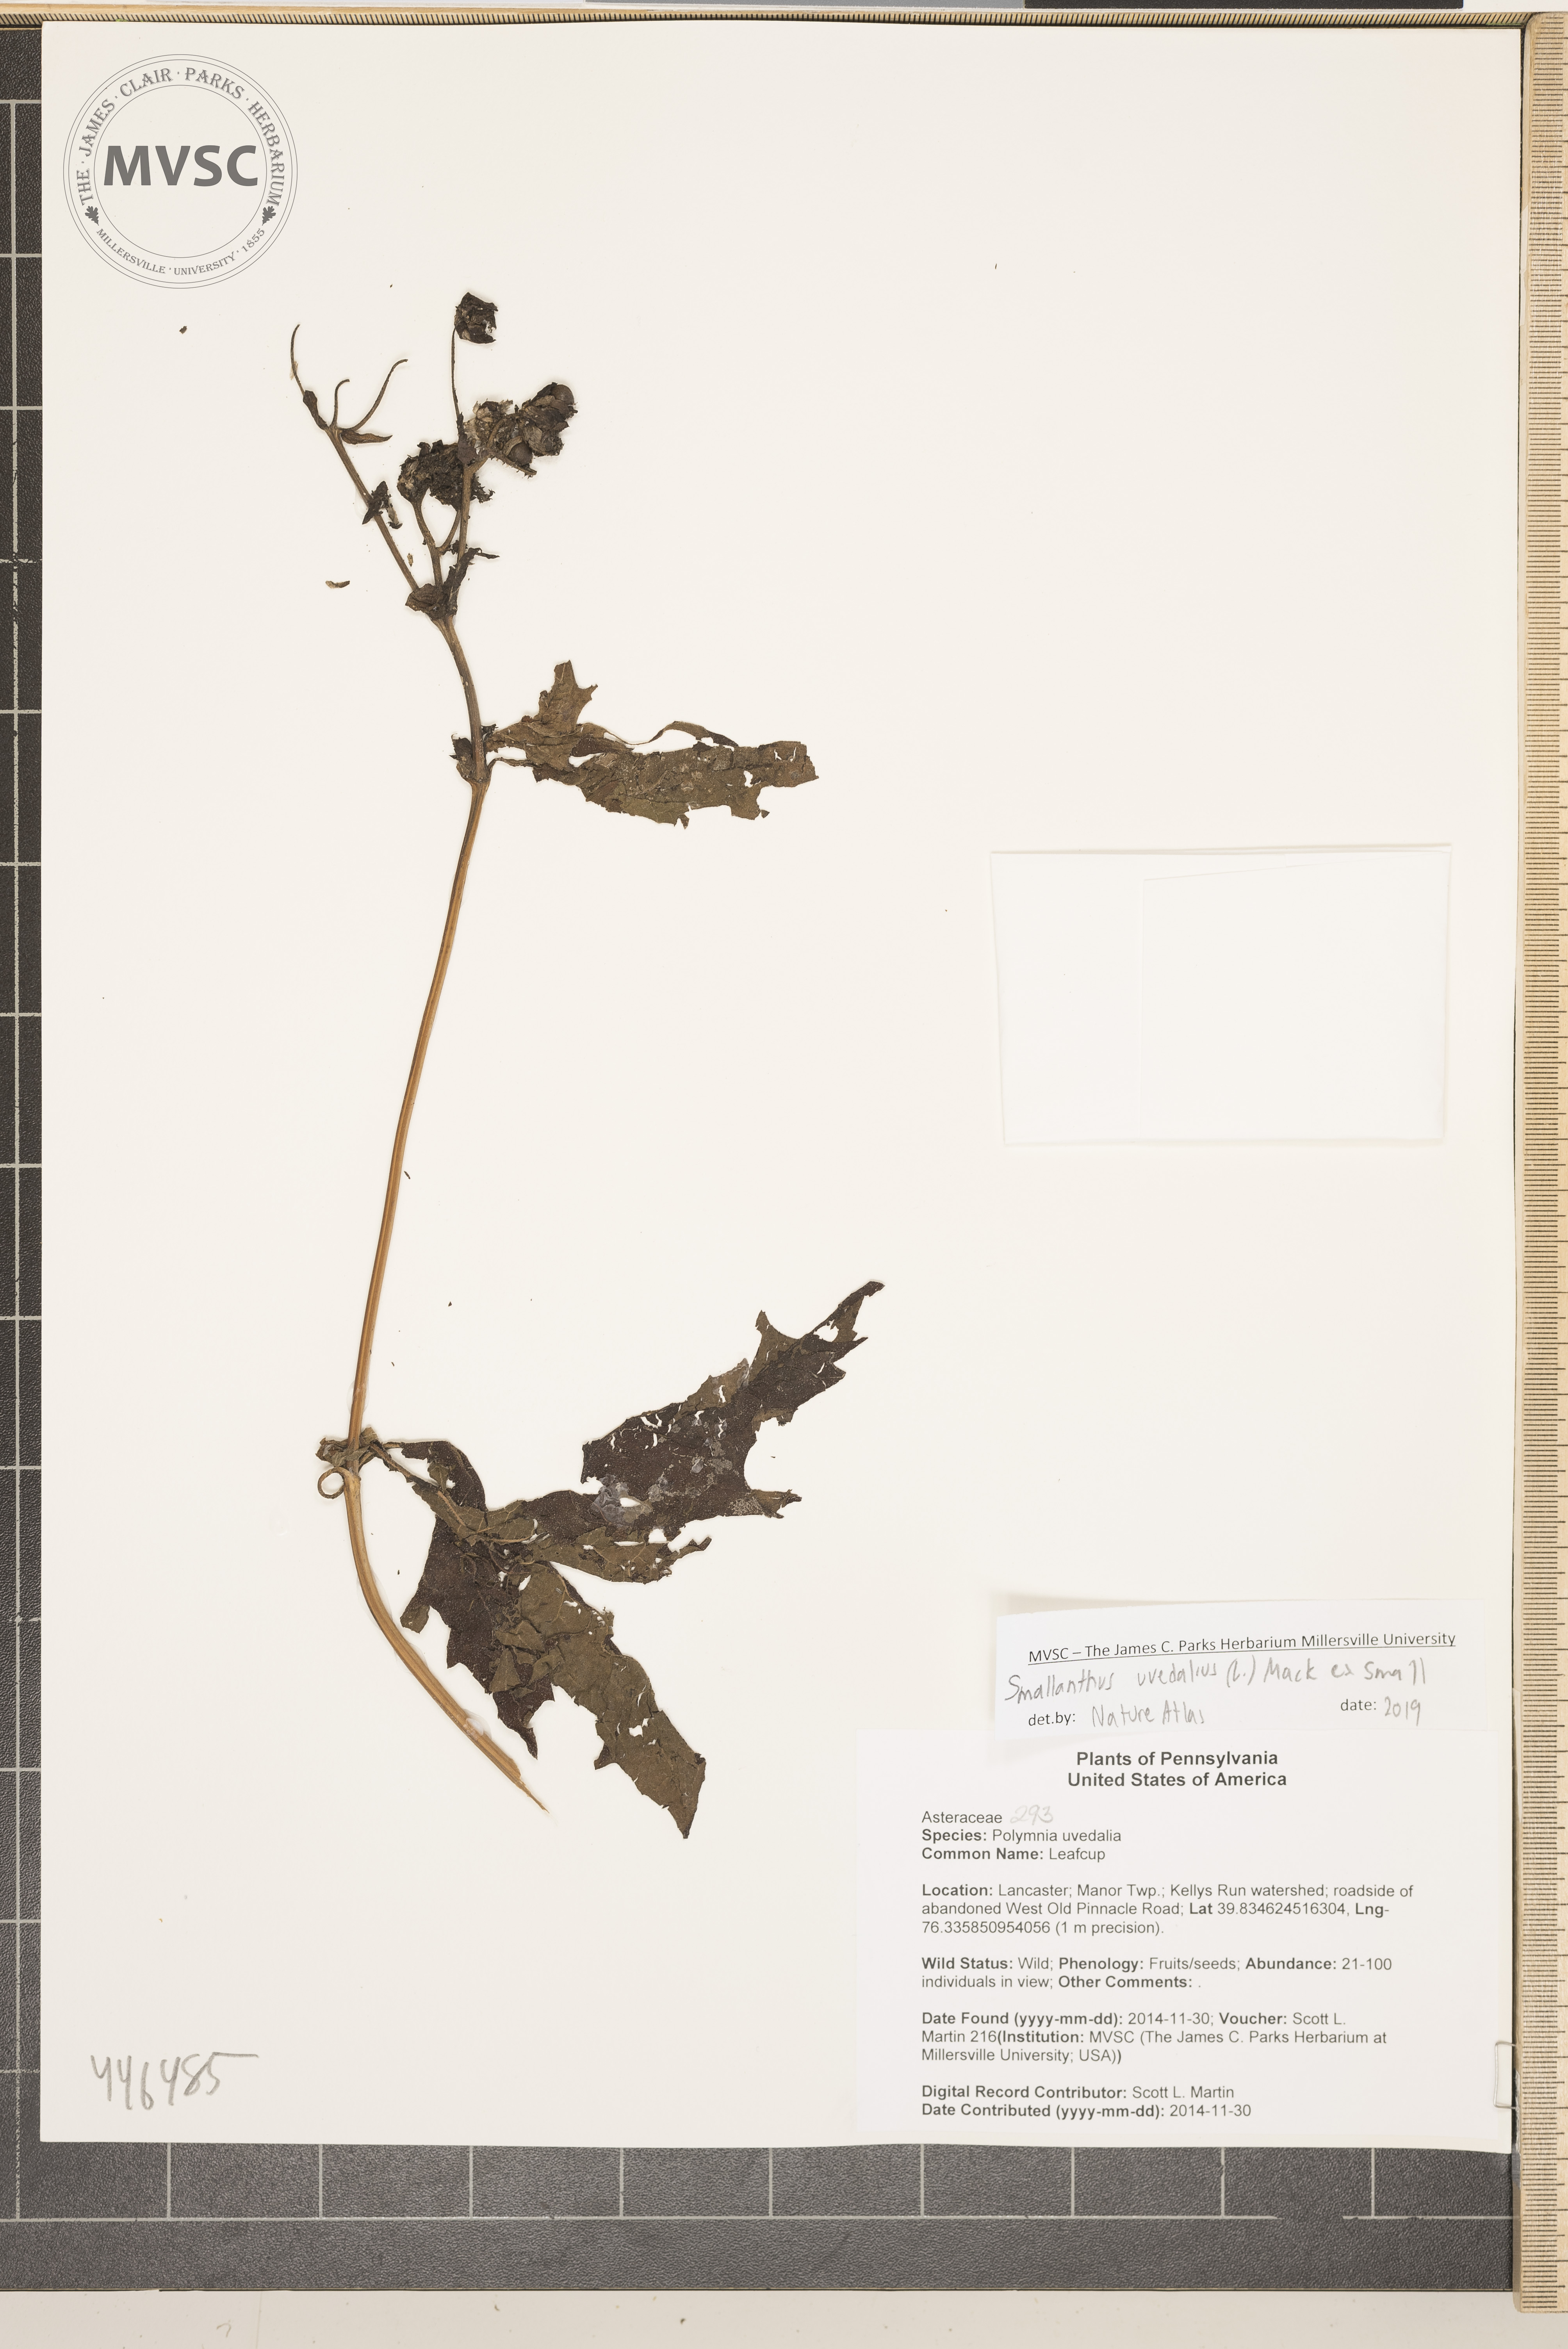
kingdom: Plantae
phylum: Tracheophyta
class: Magnoliopsida
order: Asterales
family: Asteraceae
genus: Smallanthus
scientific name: Smallanthus uvedalia
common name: Leafcup
